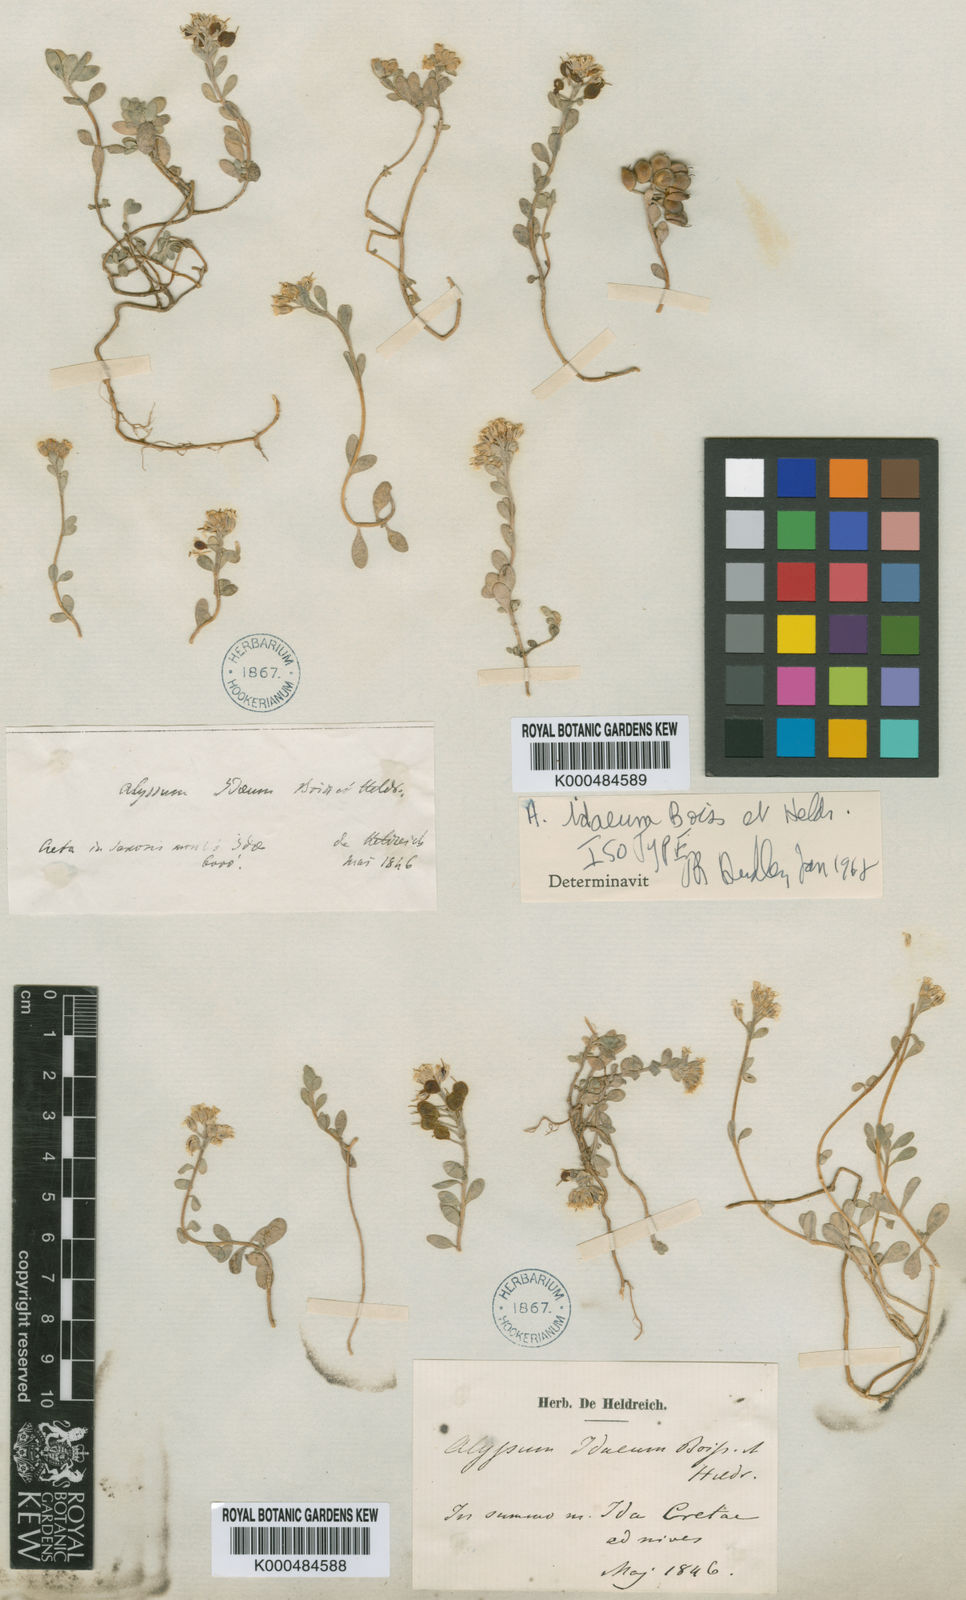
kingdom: Plantae
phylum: Tracheophyta
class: Magnoliopsida
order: Brassicales
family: Brassicaceae
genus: Alyssum
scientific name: Alyssum idaeum
